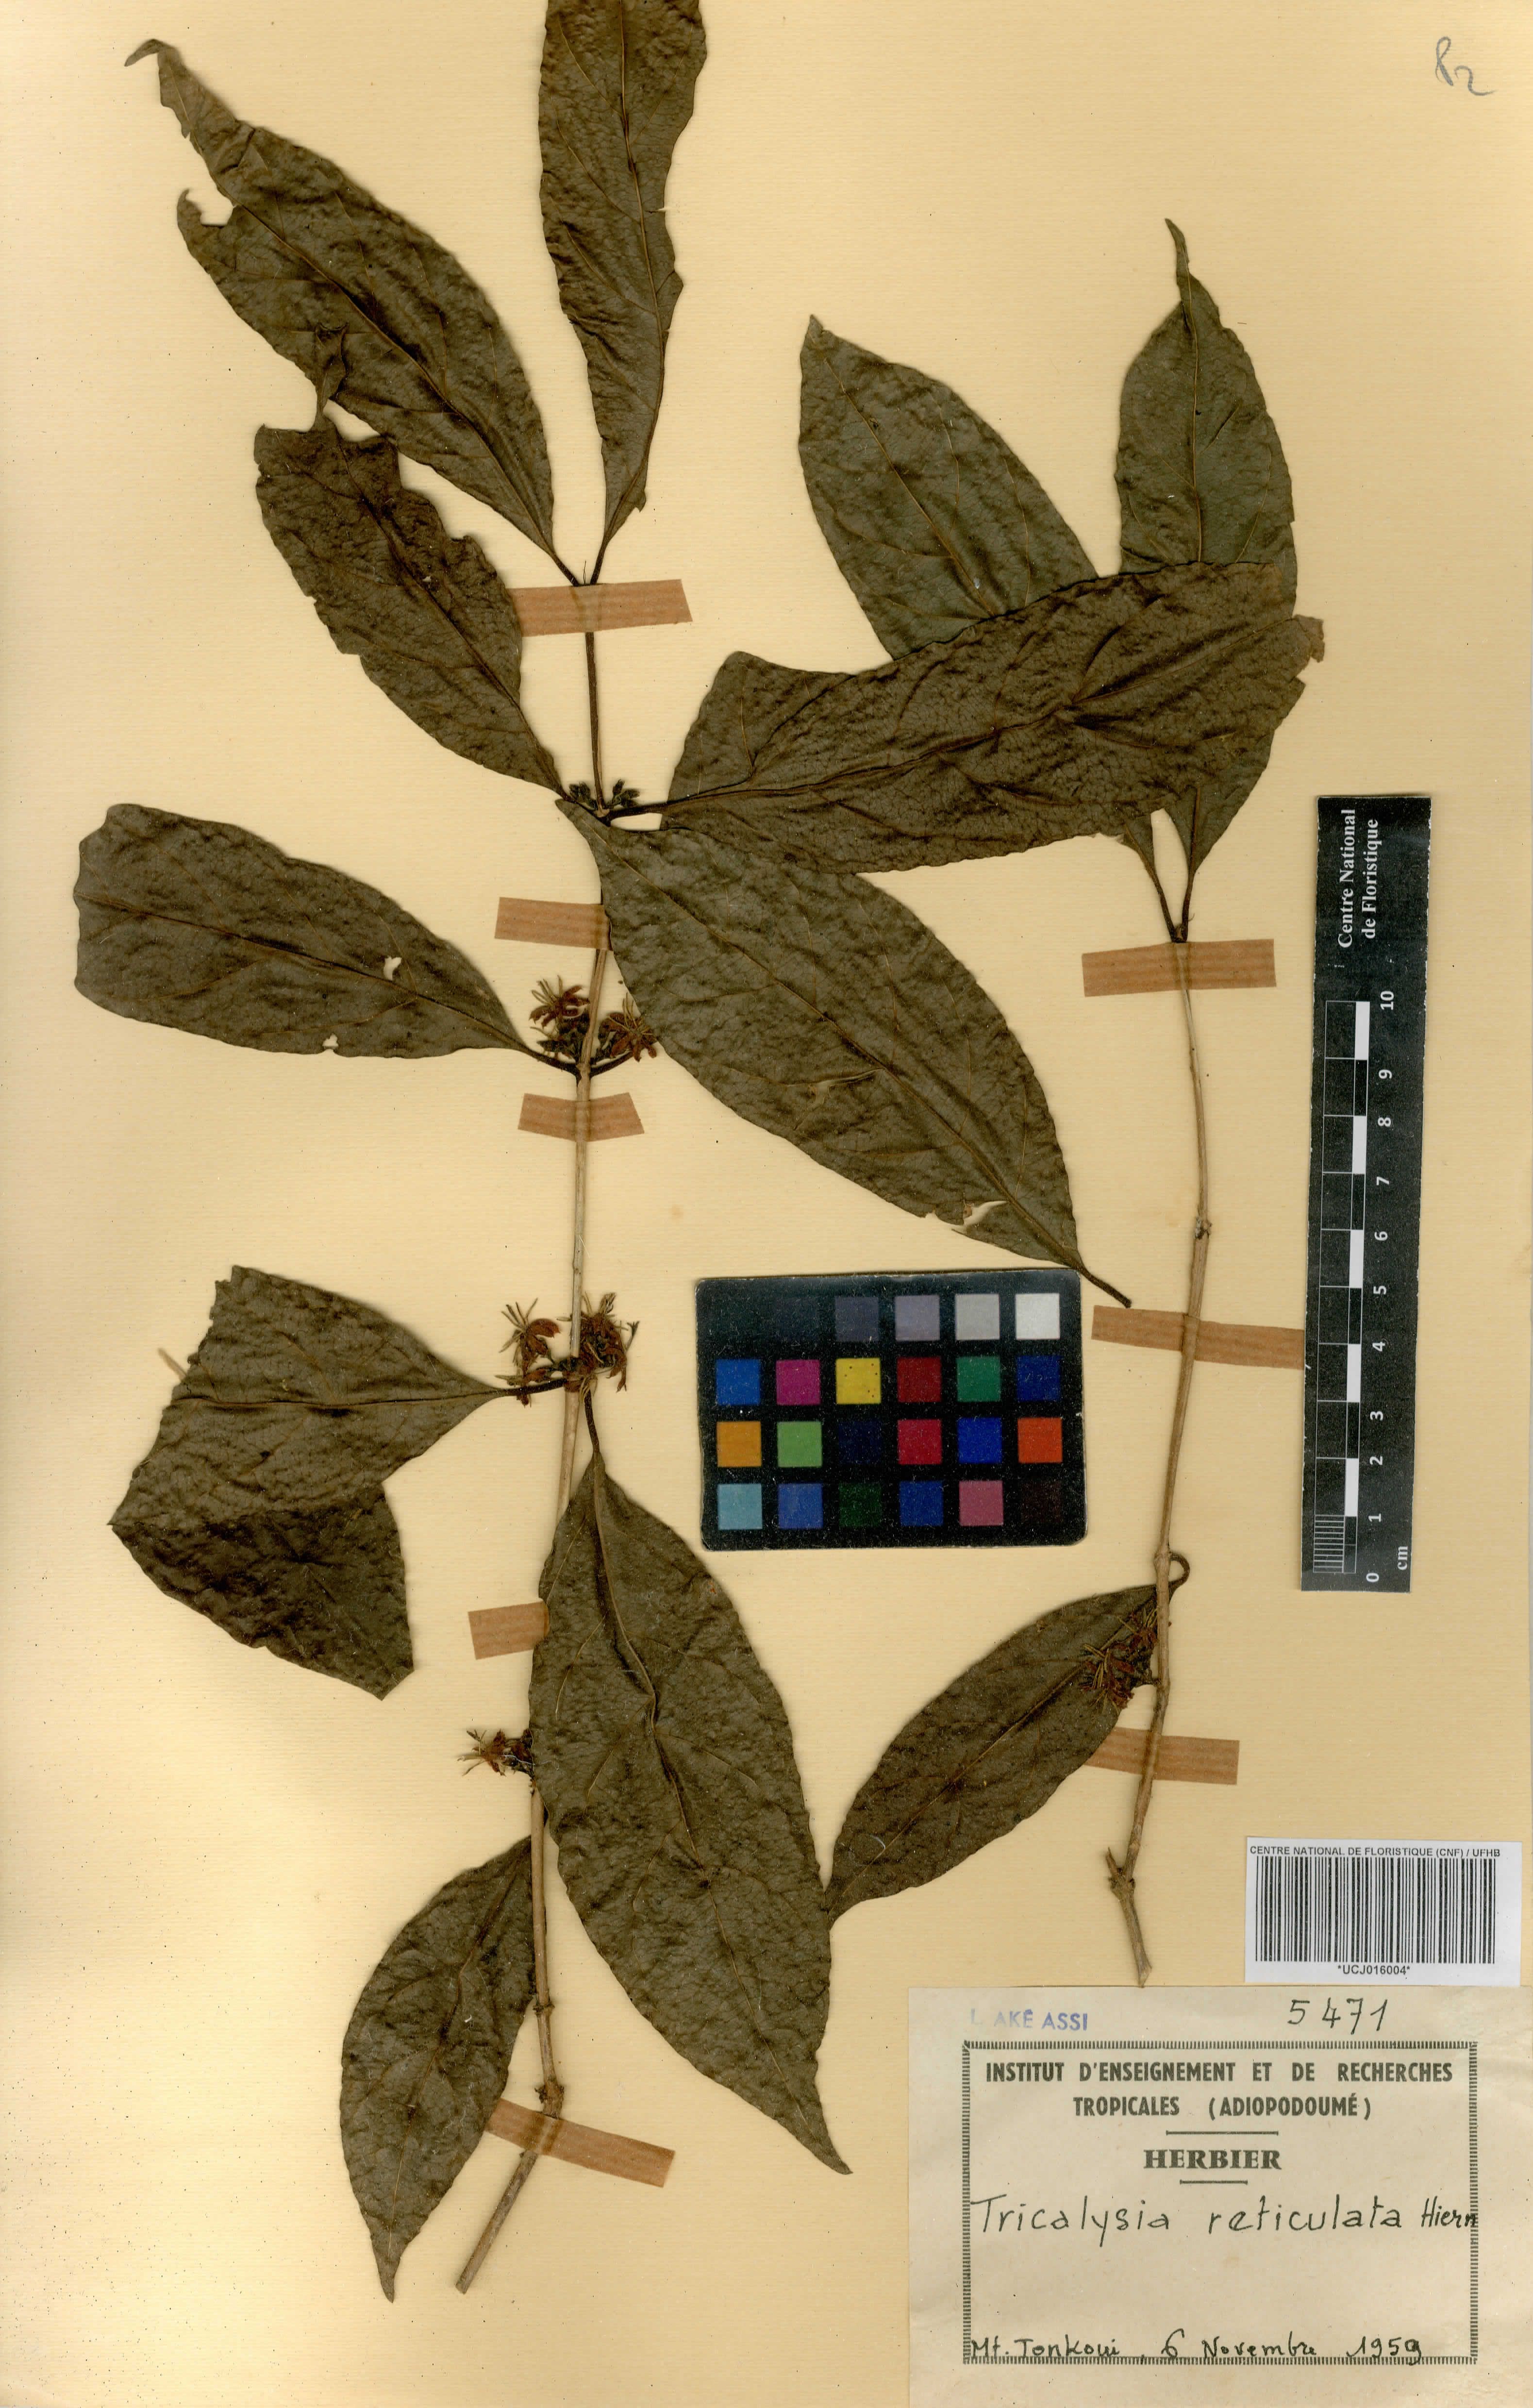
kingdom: Plantae
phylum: Tracheophyta
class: Magnoliopsida
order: Gentianales
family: Rubiaceae
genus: Tricalysia
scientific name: Tricalysia reticulata
